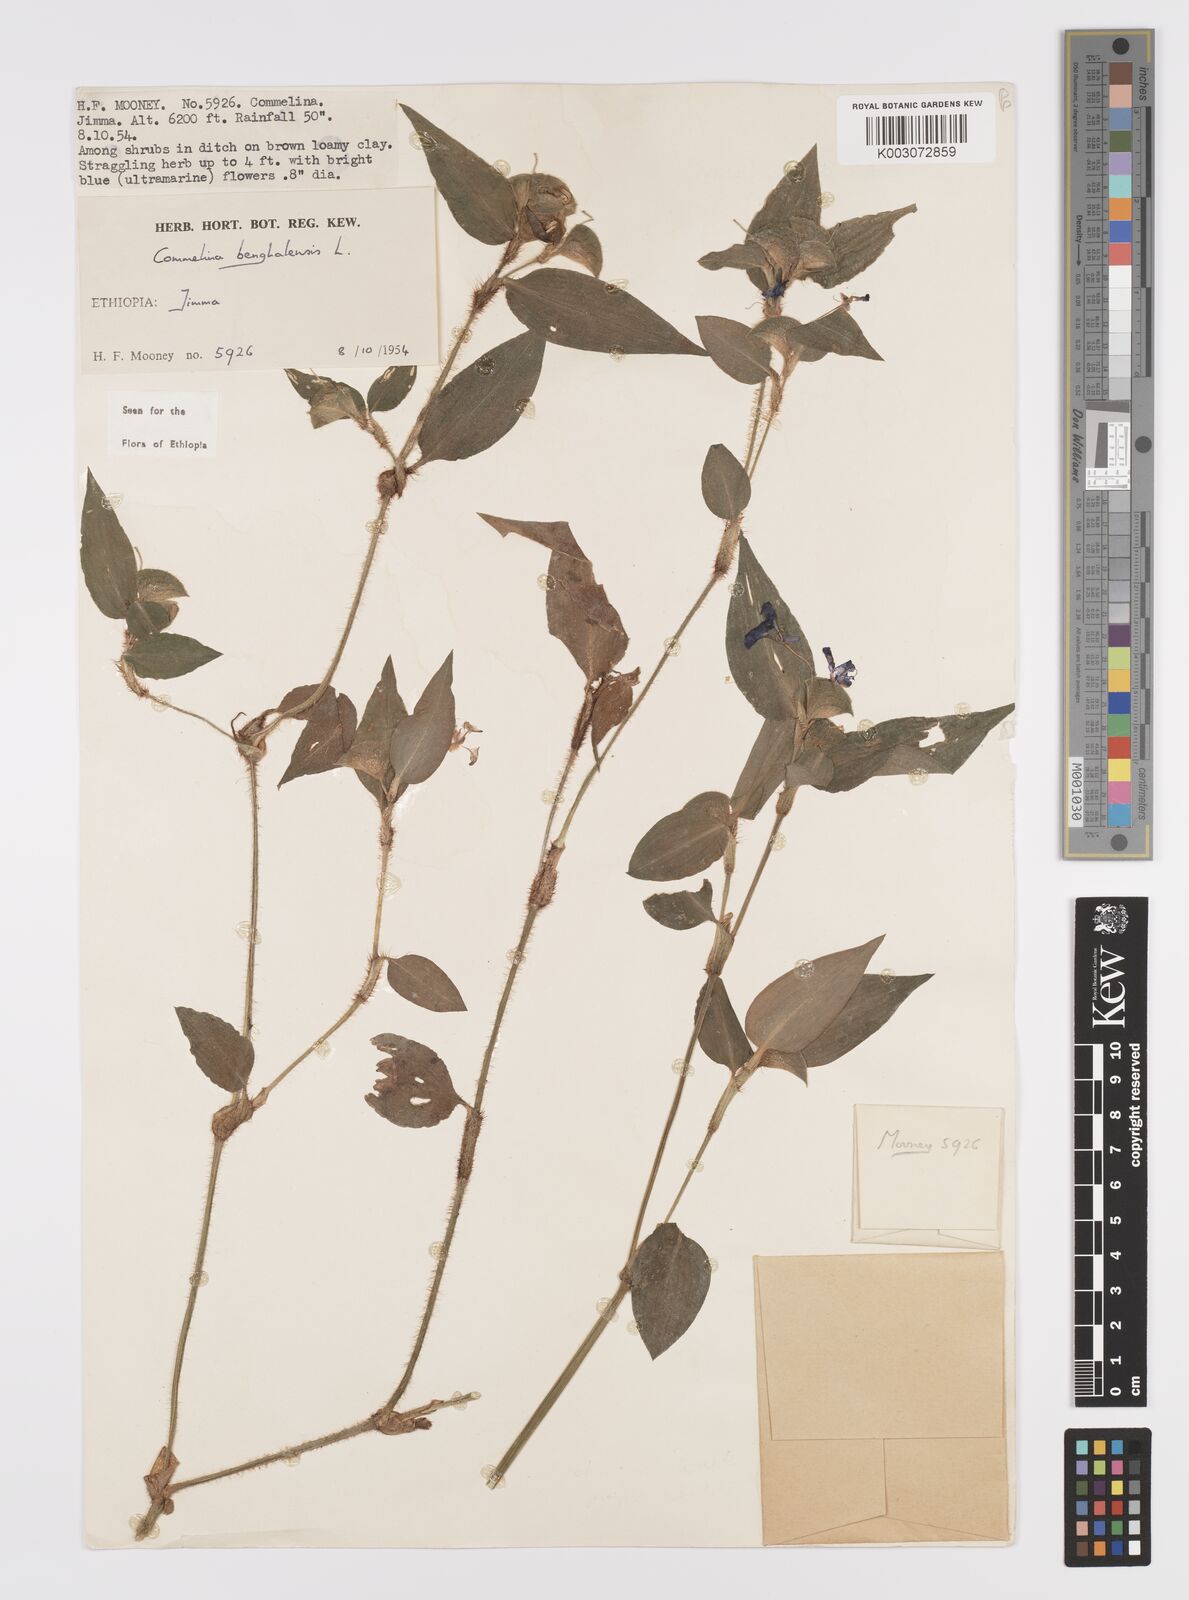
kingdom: Plantae
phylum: Tracheophyta
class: Liliopsida
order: Commelinales
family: Commelinaceae
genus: Commelina
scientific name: Commelina benghalensis
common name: Jio
